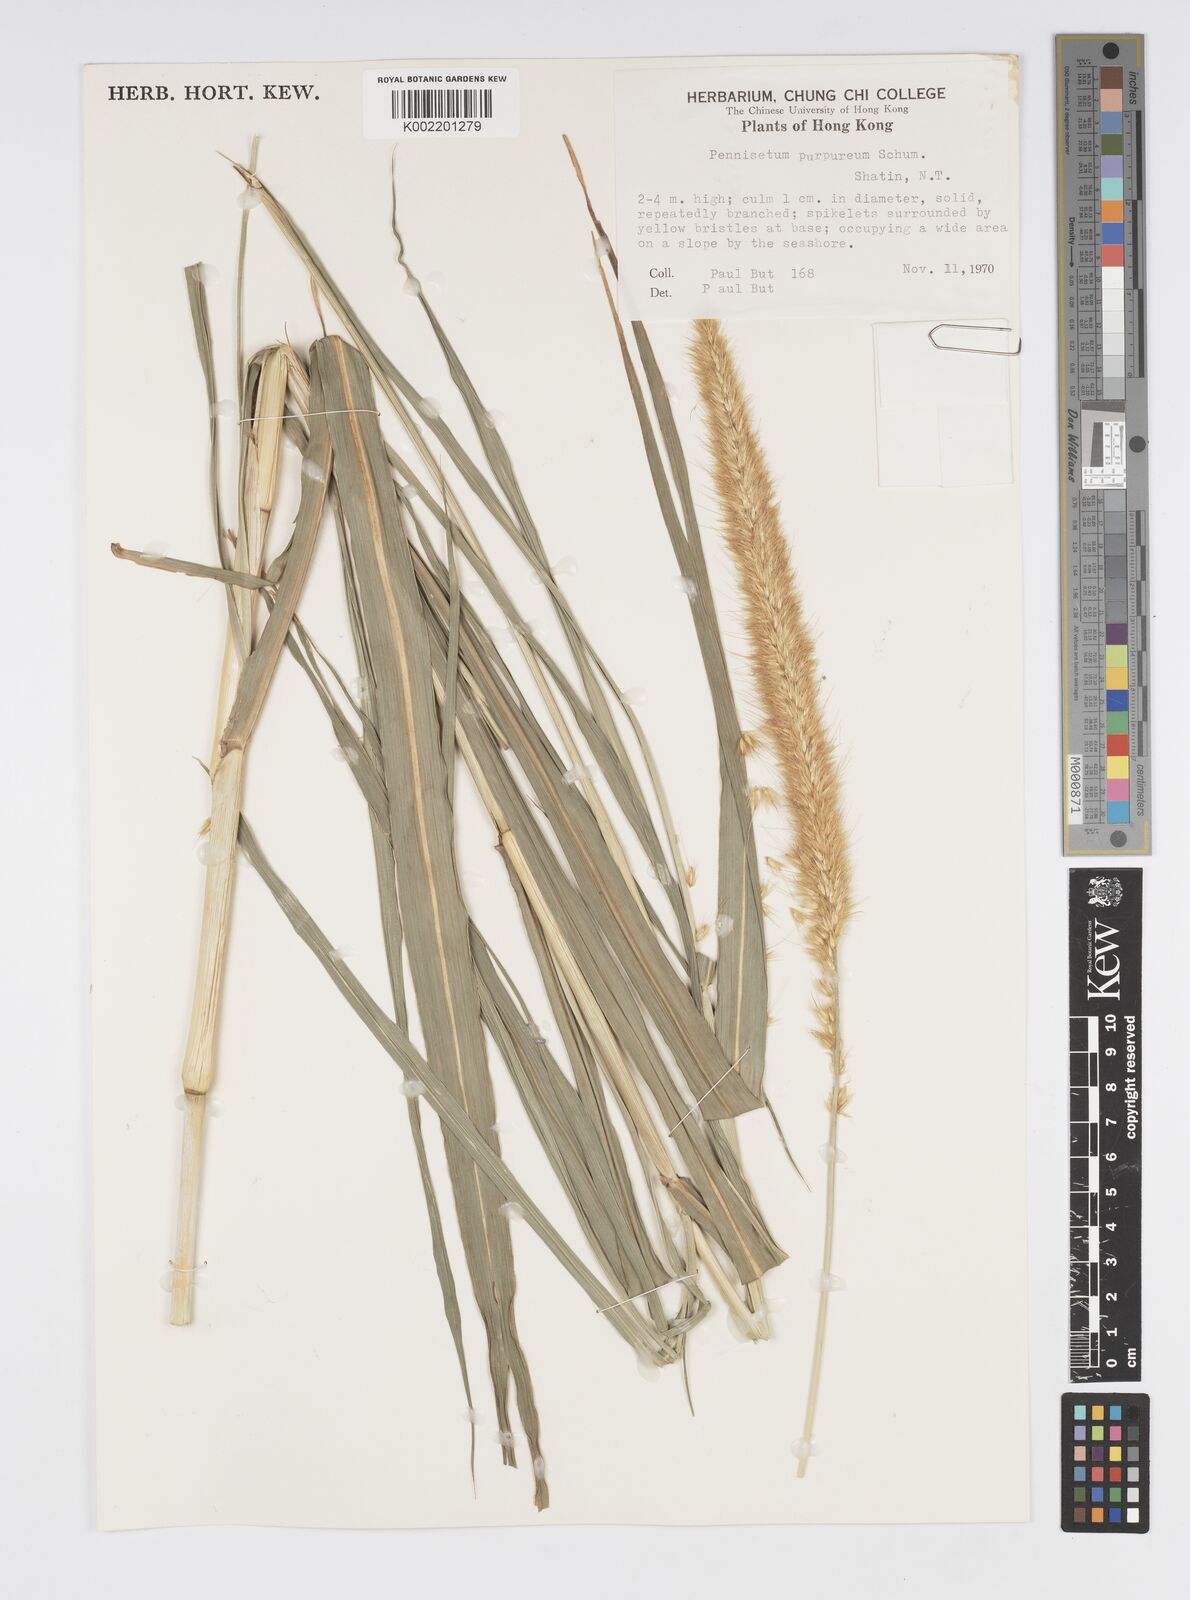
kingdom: Plantae
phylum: Tracheophyta
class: Liliopsida
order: Poales
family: Poaceae
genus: Cenchrus
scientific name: Cenchrus purpureus
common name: Elephant grass
